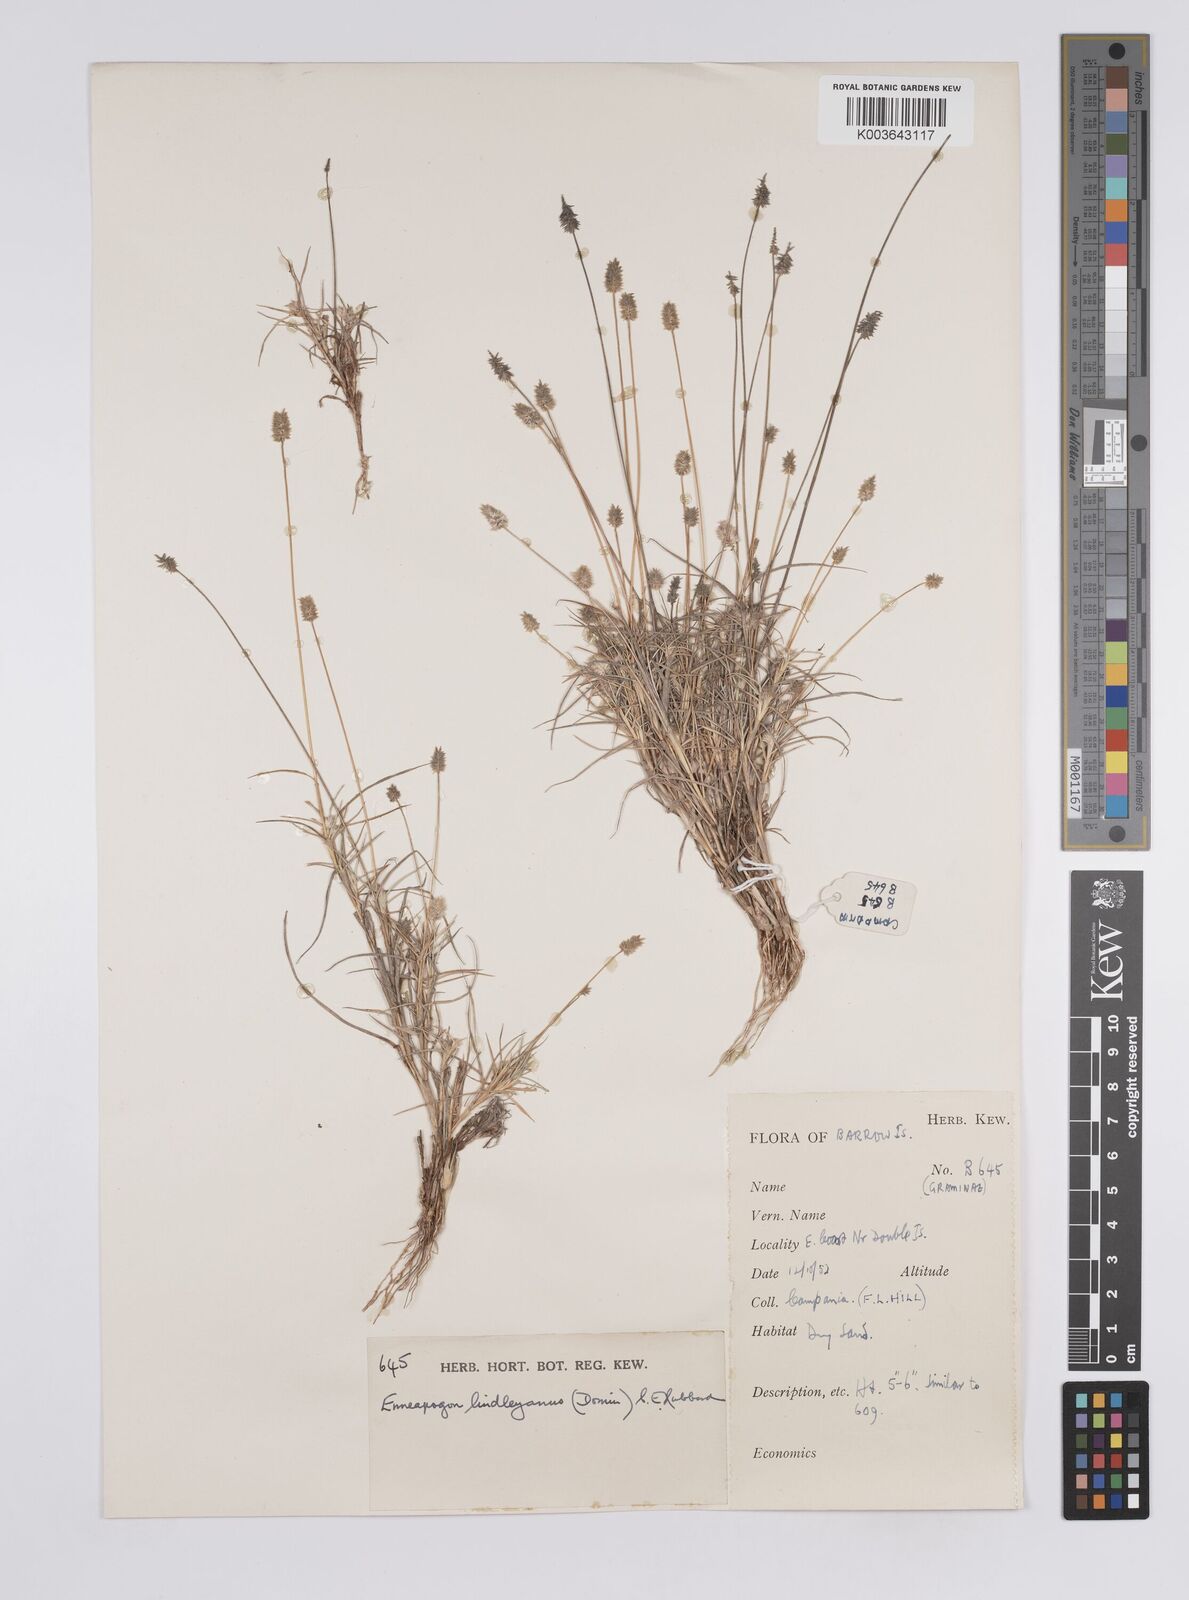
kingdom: Plantae
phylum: Tracheophyta
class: Liliopsida
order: Poales
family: Poaceae
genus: Enneapogon
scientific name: Enneapogon lindleyanus
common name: Conetop nineawn
